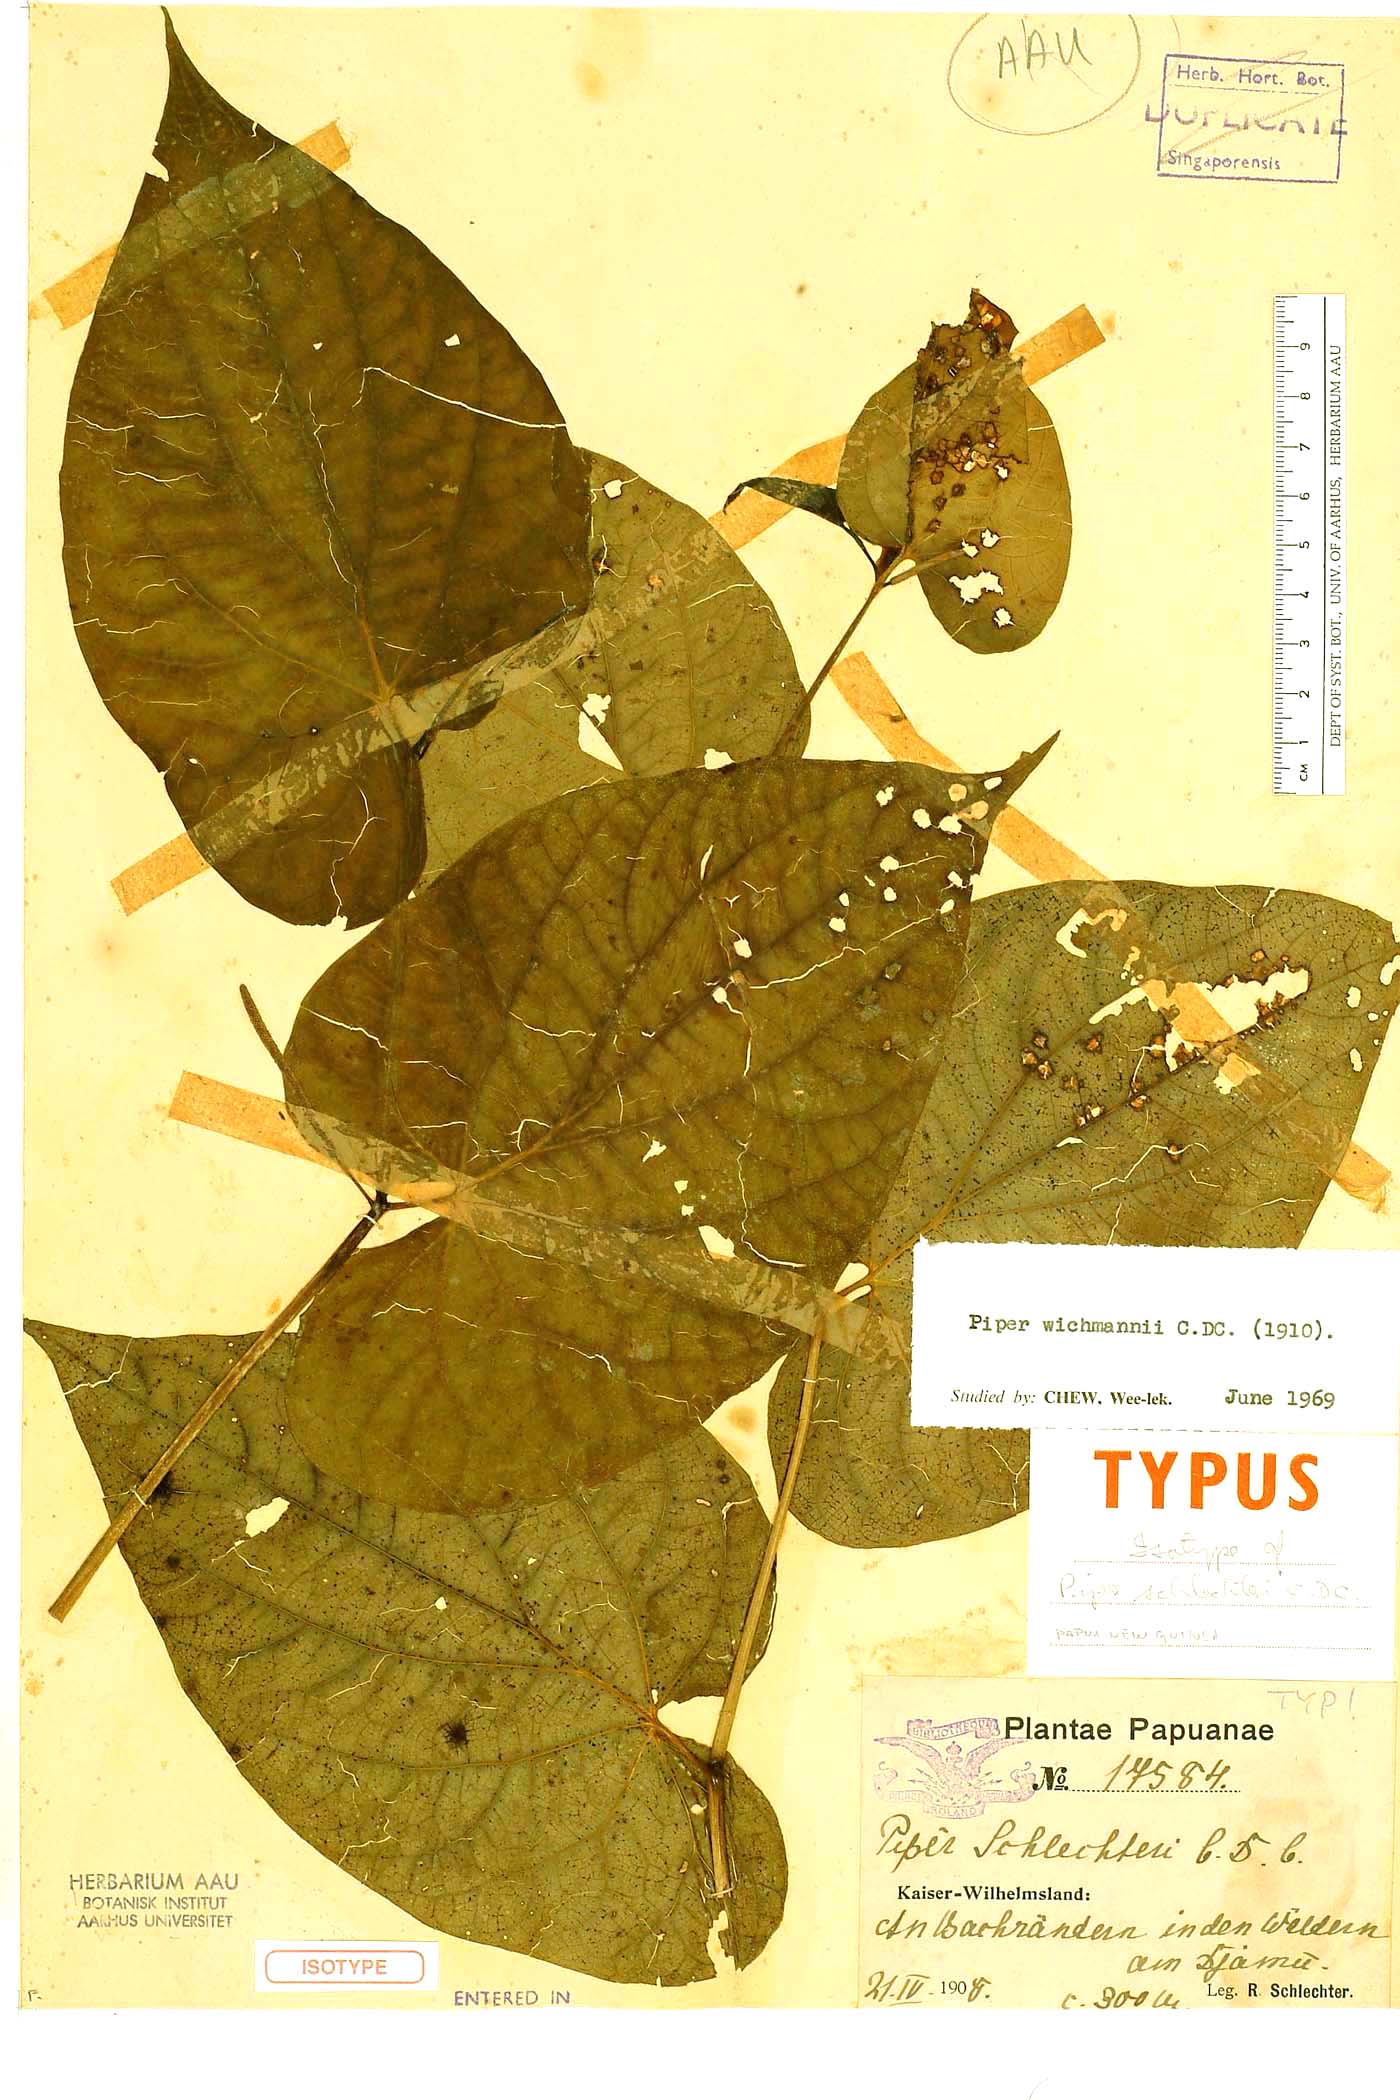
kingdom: Plantae
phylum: Tracheophyta
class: Magnoliopsida
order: Piperales
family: Piperaceae
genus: Macropiper
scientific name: Macropiper methysticum
